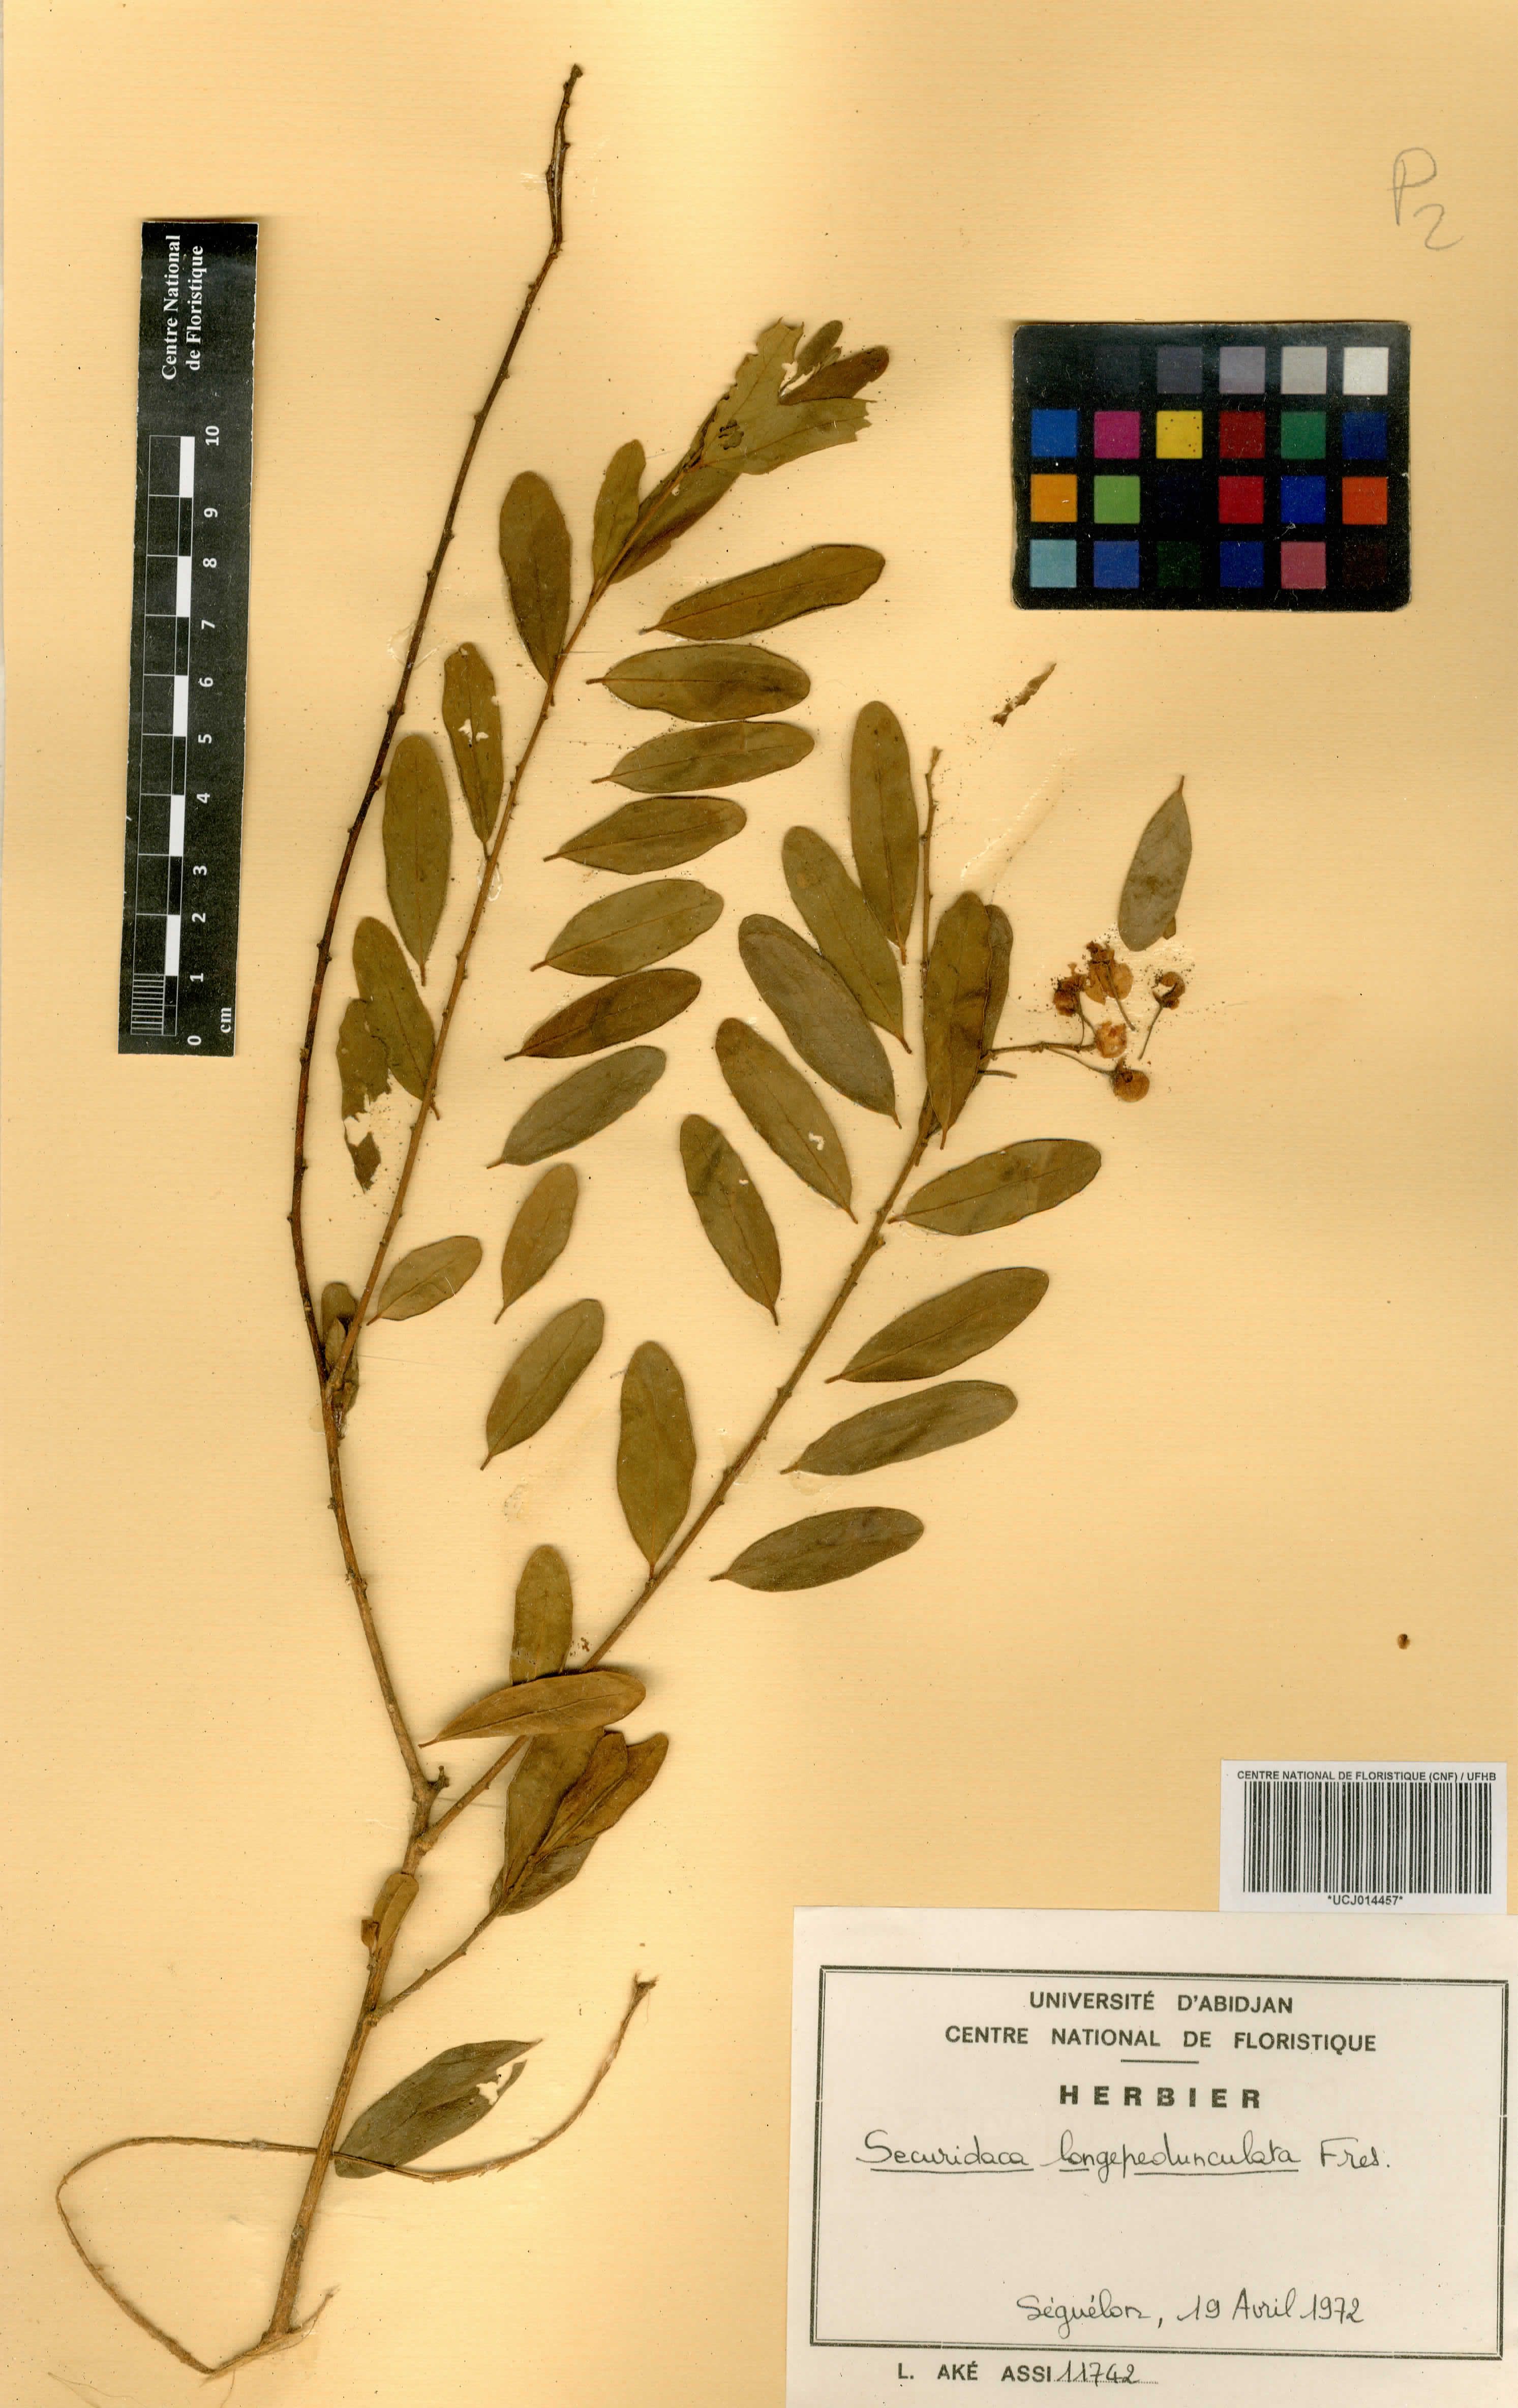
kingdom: Plantae
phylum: Tracheophyta
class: Magnoliopsida
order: Fabales
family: Polygalaceae
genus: Securidaca
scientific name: Securidaca longepedunculata
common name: Violet tree
